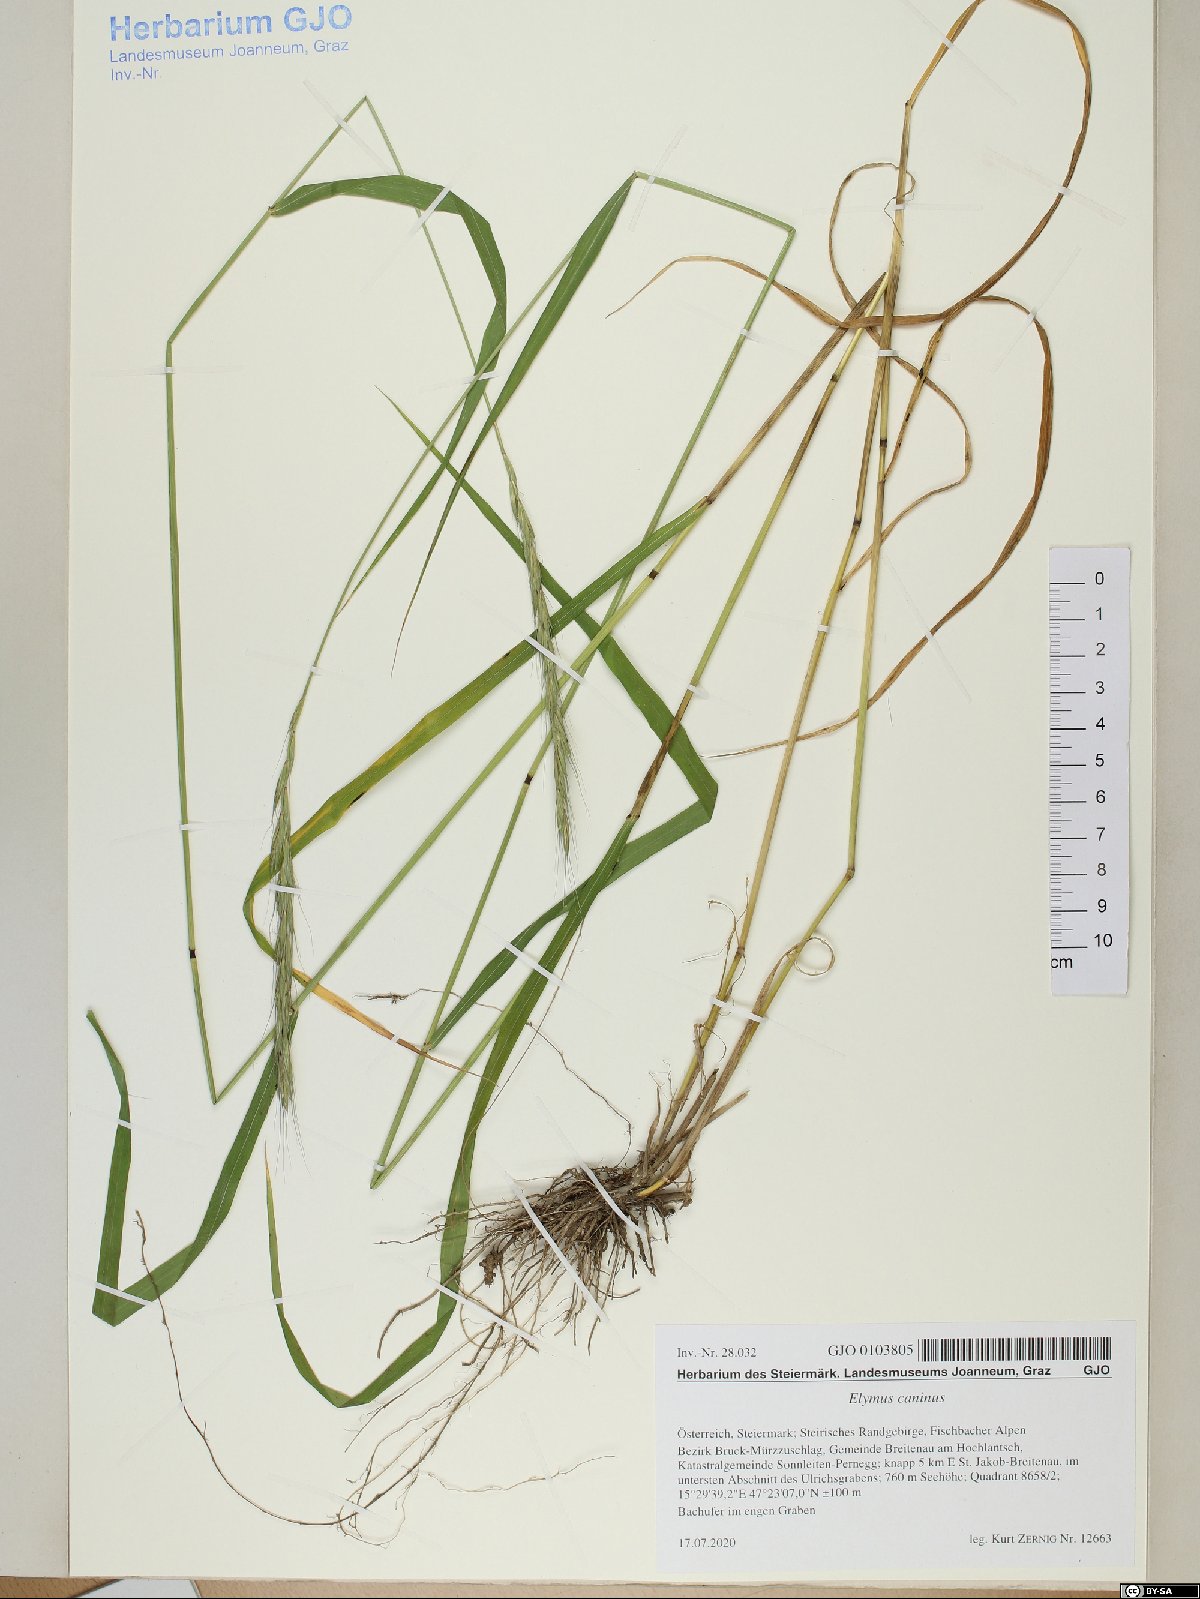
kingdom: Plantae
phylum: Tracheophyta
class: Liliopsida
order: Poales
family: Poaceae
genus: Elymus
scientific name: Elymus caninus
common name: Bearded couch
